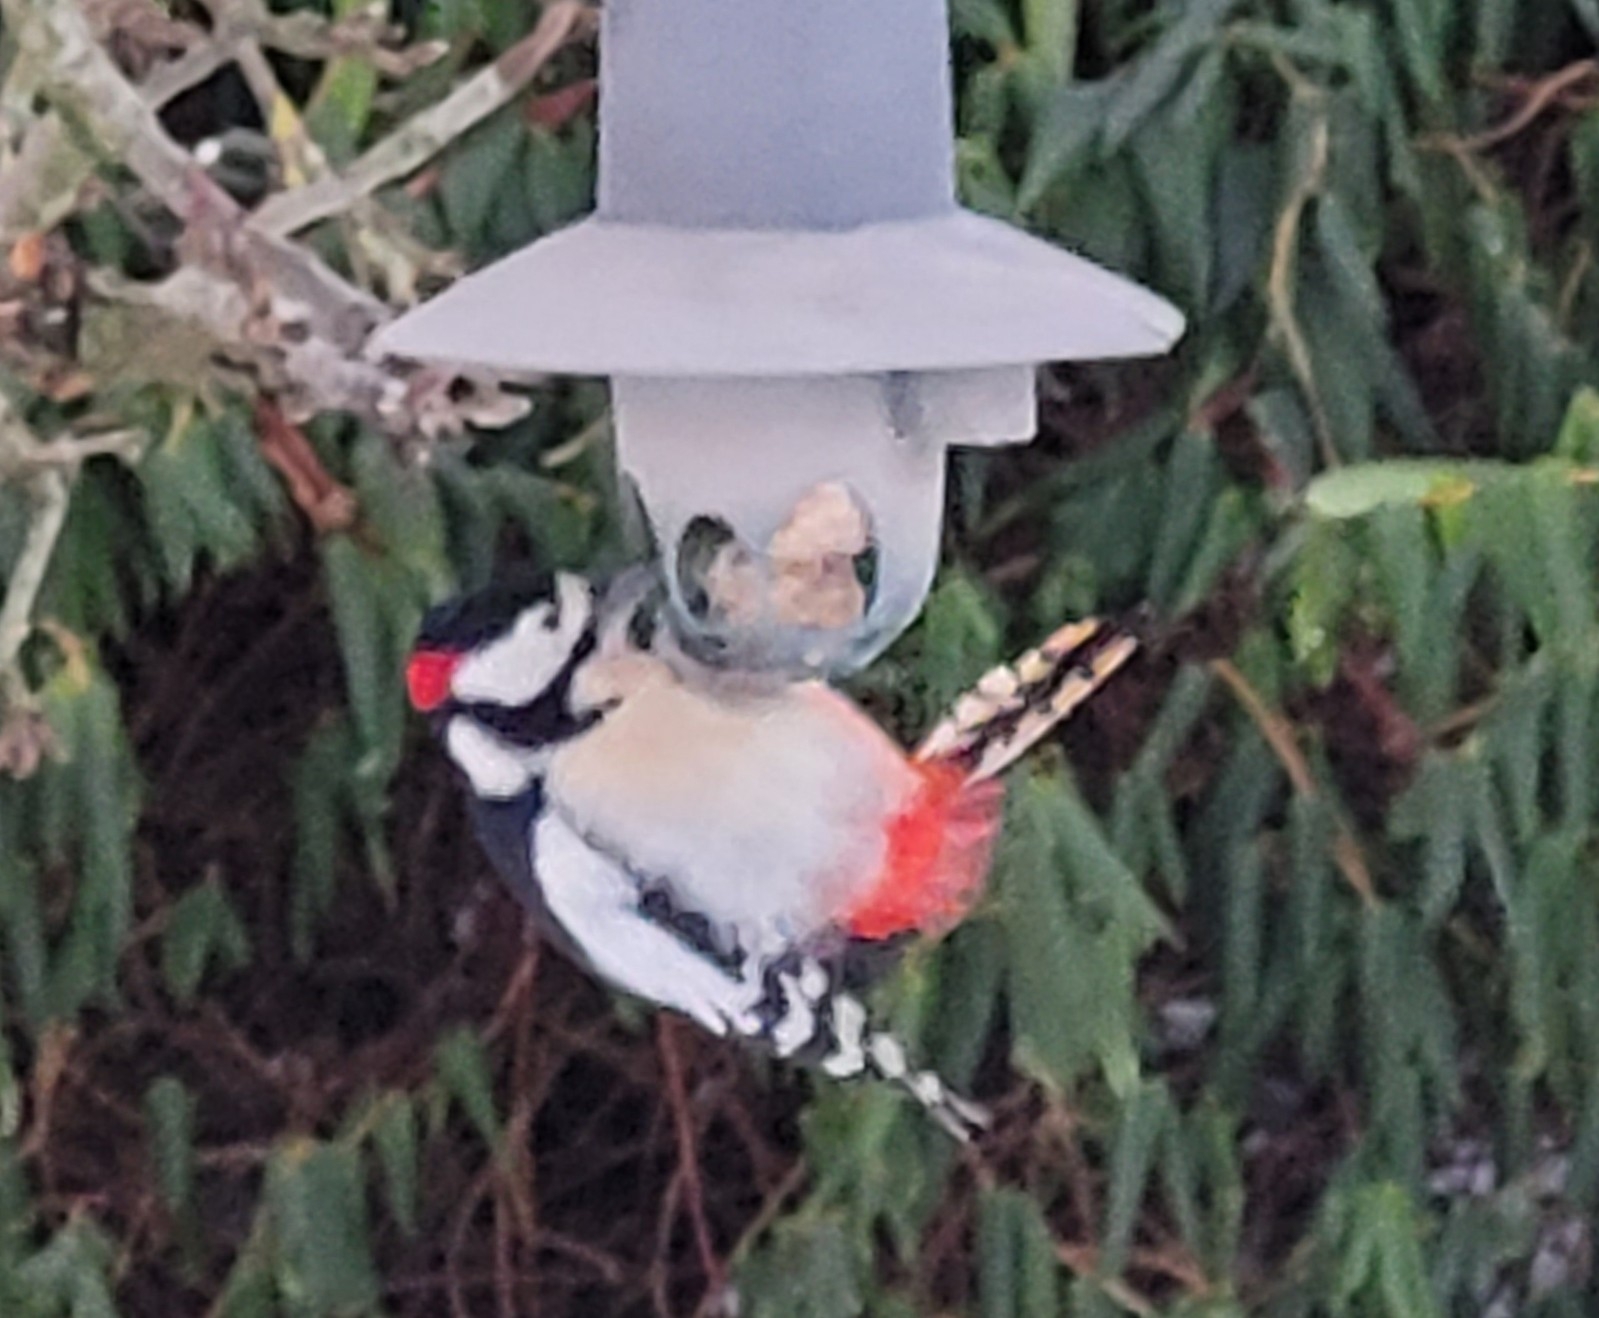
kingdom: Animalia
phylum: Chordata
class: Aves
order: Piciformes
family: Picidae
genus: Dendrocopos
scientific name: Dendrocopos major
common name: Stor flagspætte
